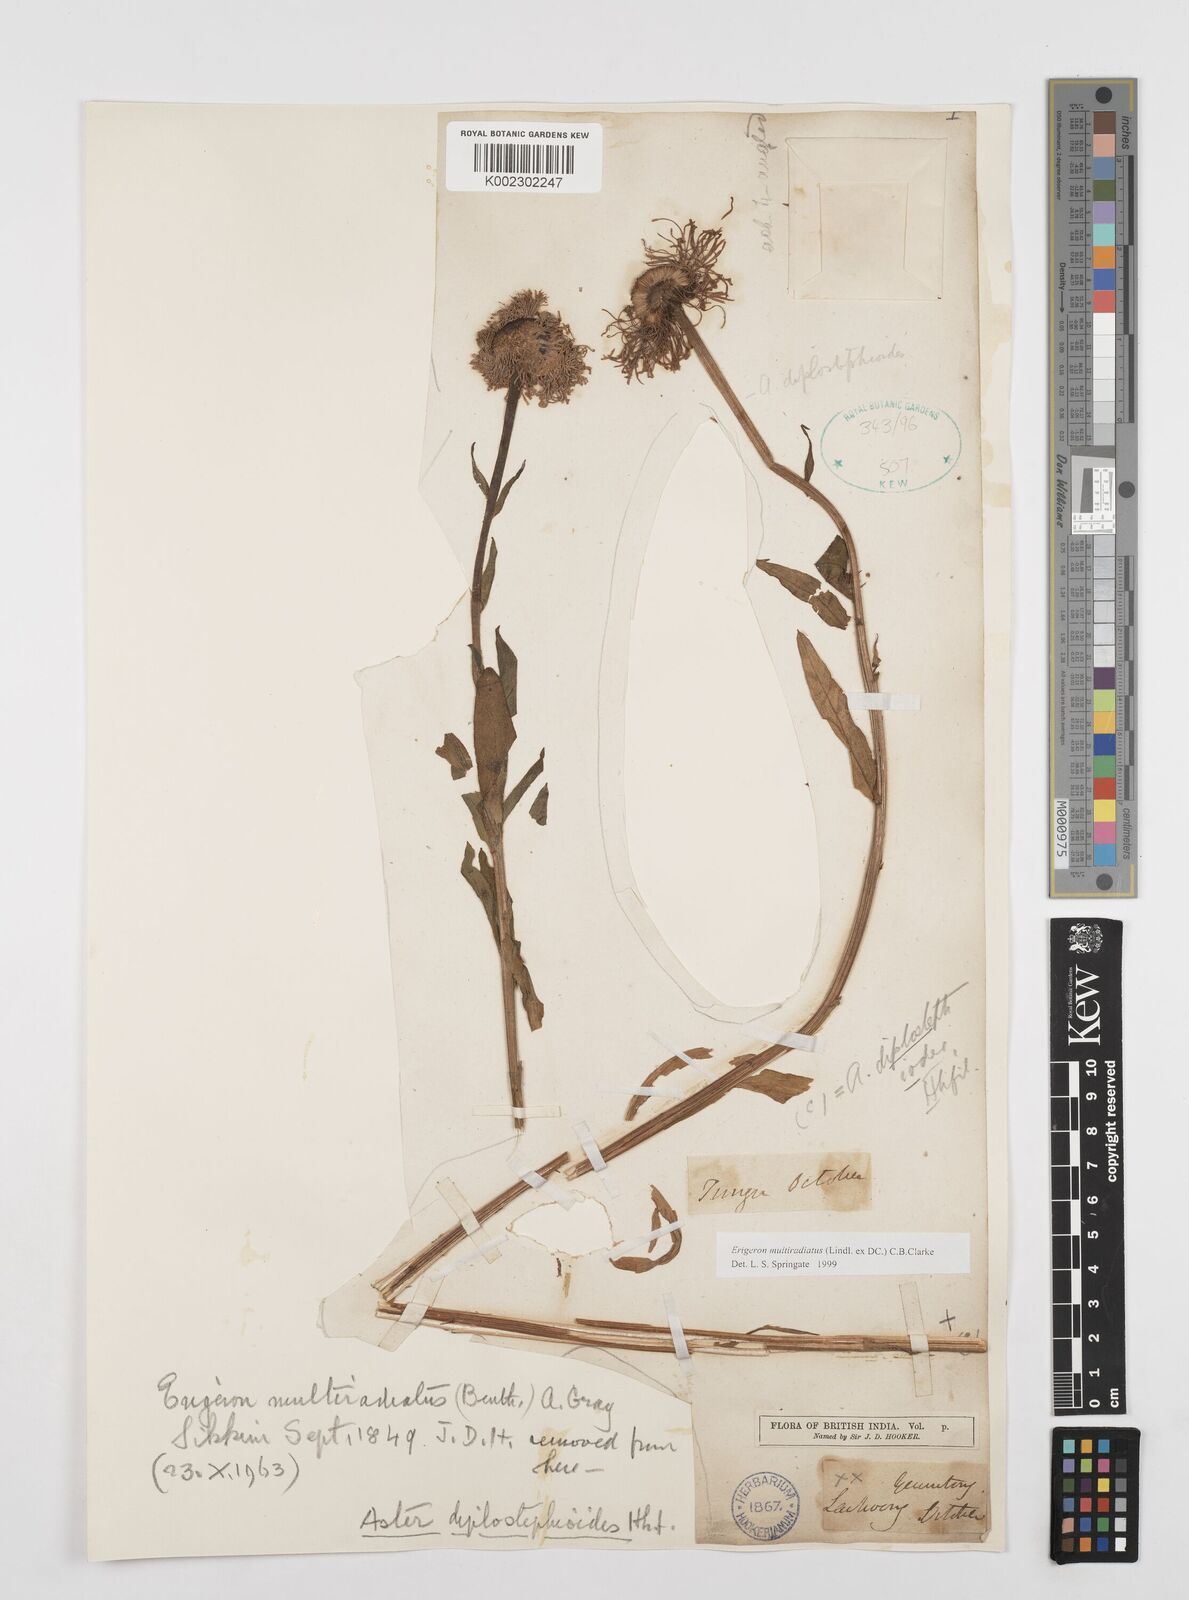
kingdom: Plantae
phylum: Tracheophyta
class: Magnoliopsida
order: Asterales
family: Asteraceae
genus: Erigeron
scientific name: Erigeron multiradiatus
